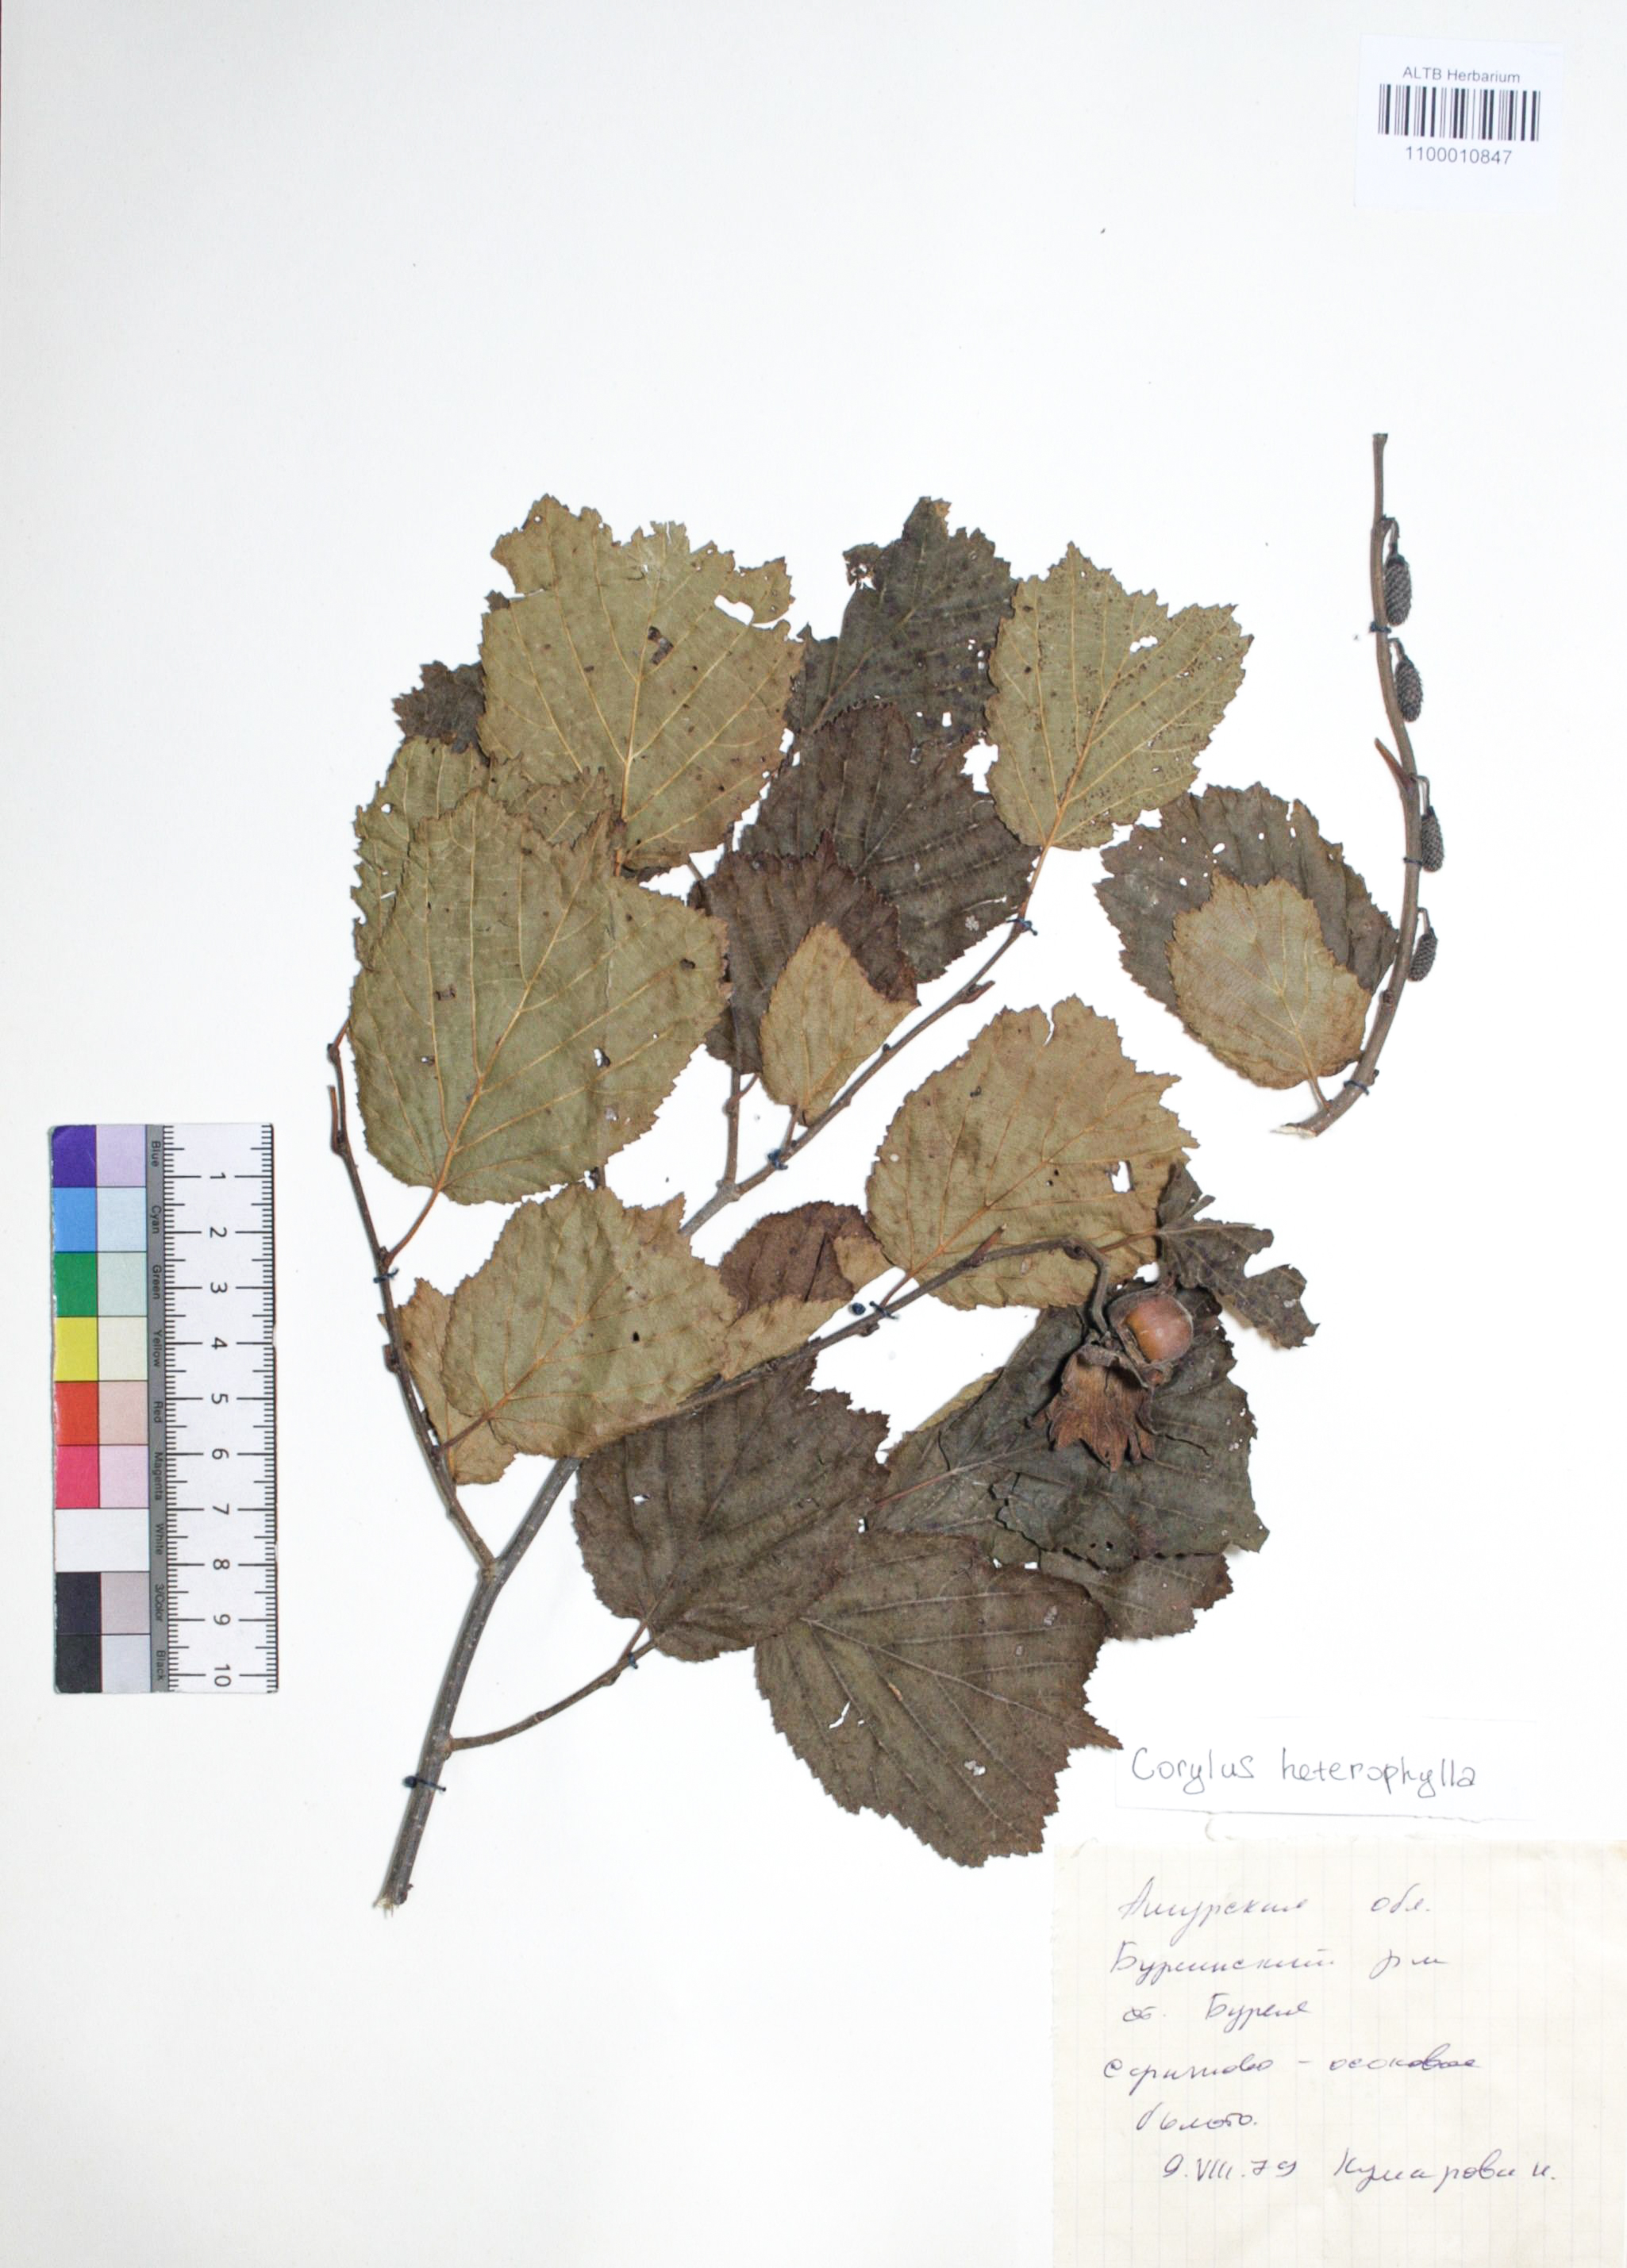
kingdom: Plantae
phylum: Tracheophyta
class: Magnoliopsida
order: Fagales
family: Betulaceae
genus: Corylus
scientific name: Corylus heterophylla
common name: Siberian hazelnut
